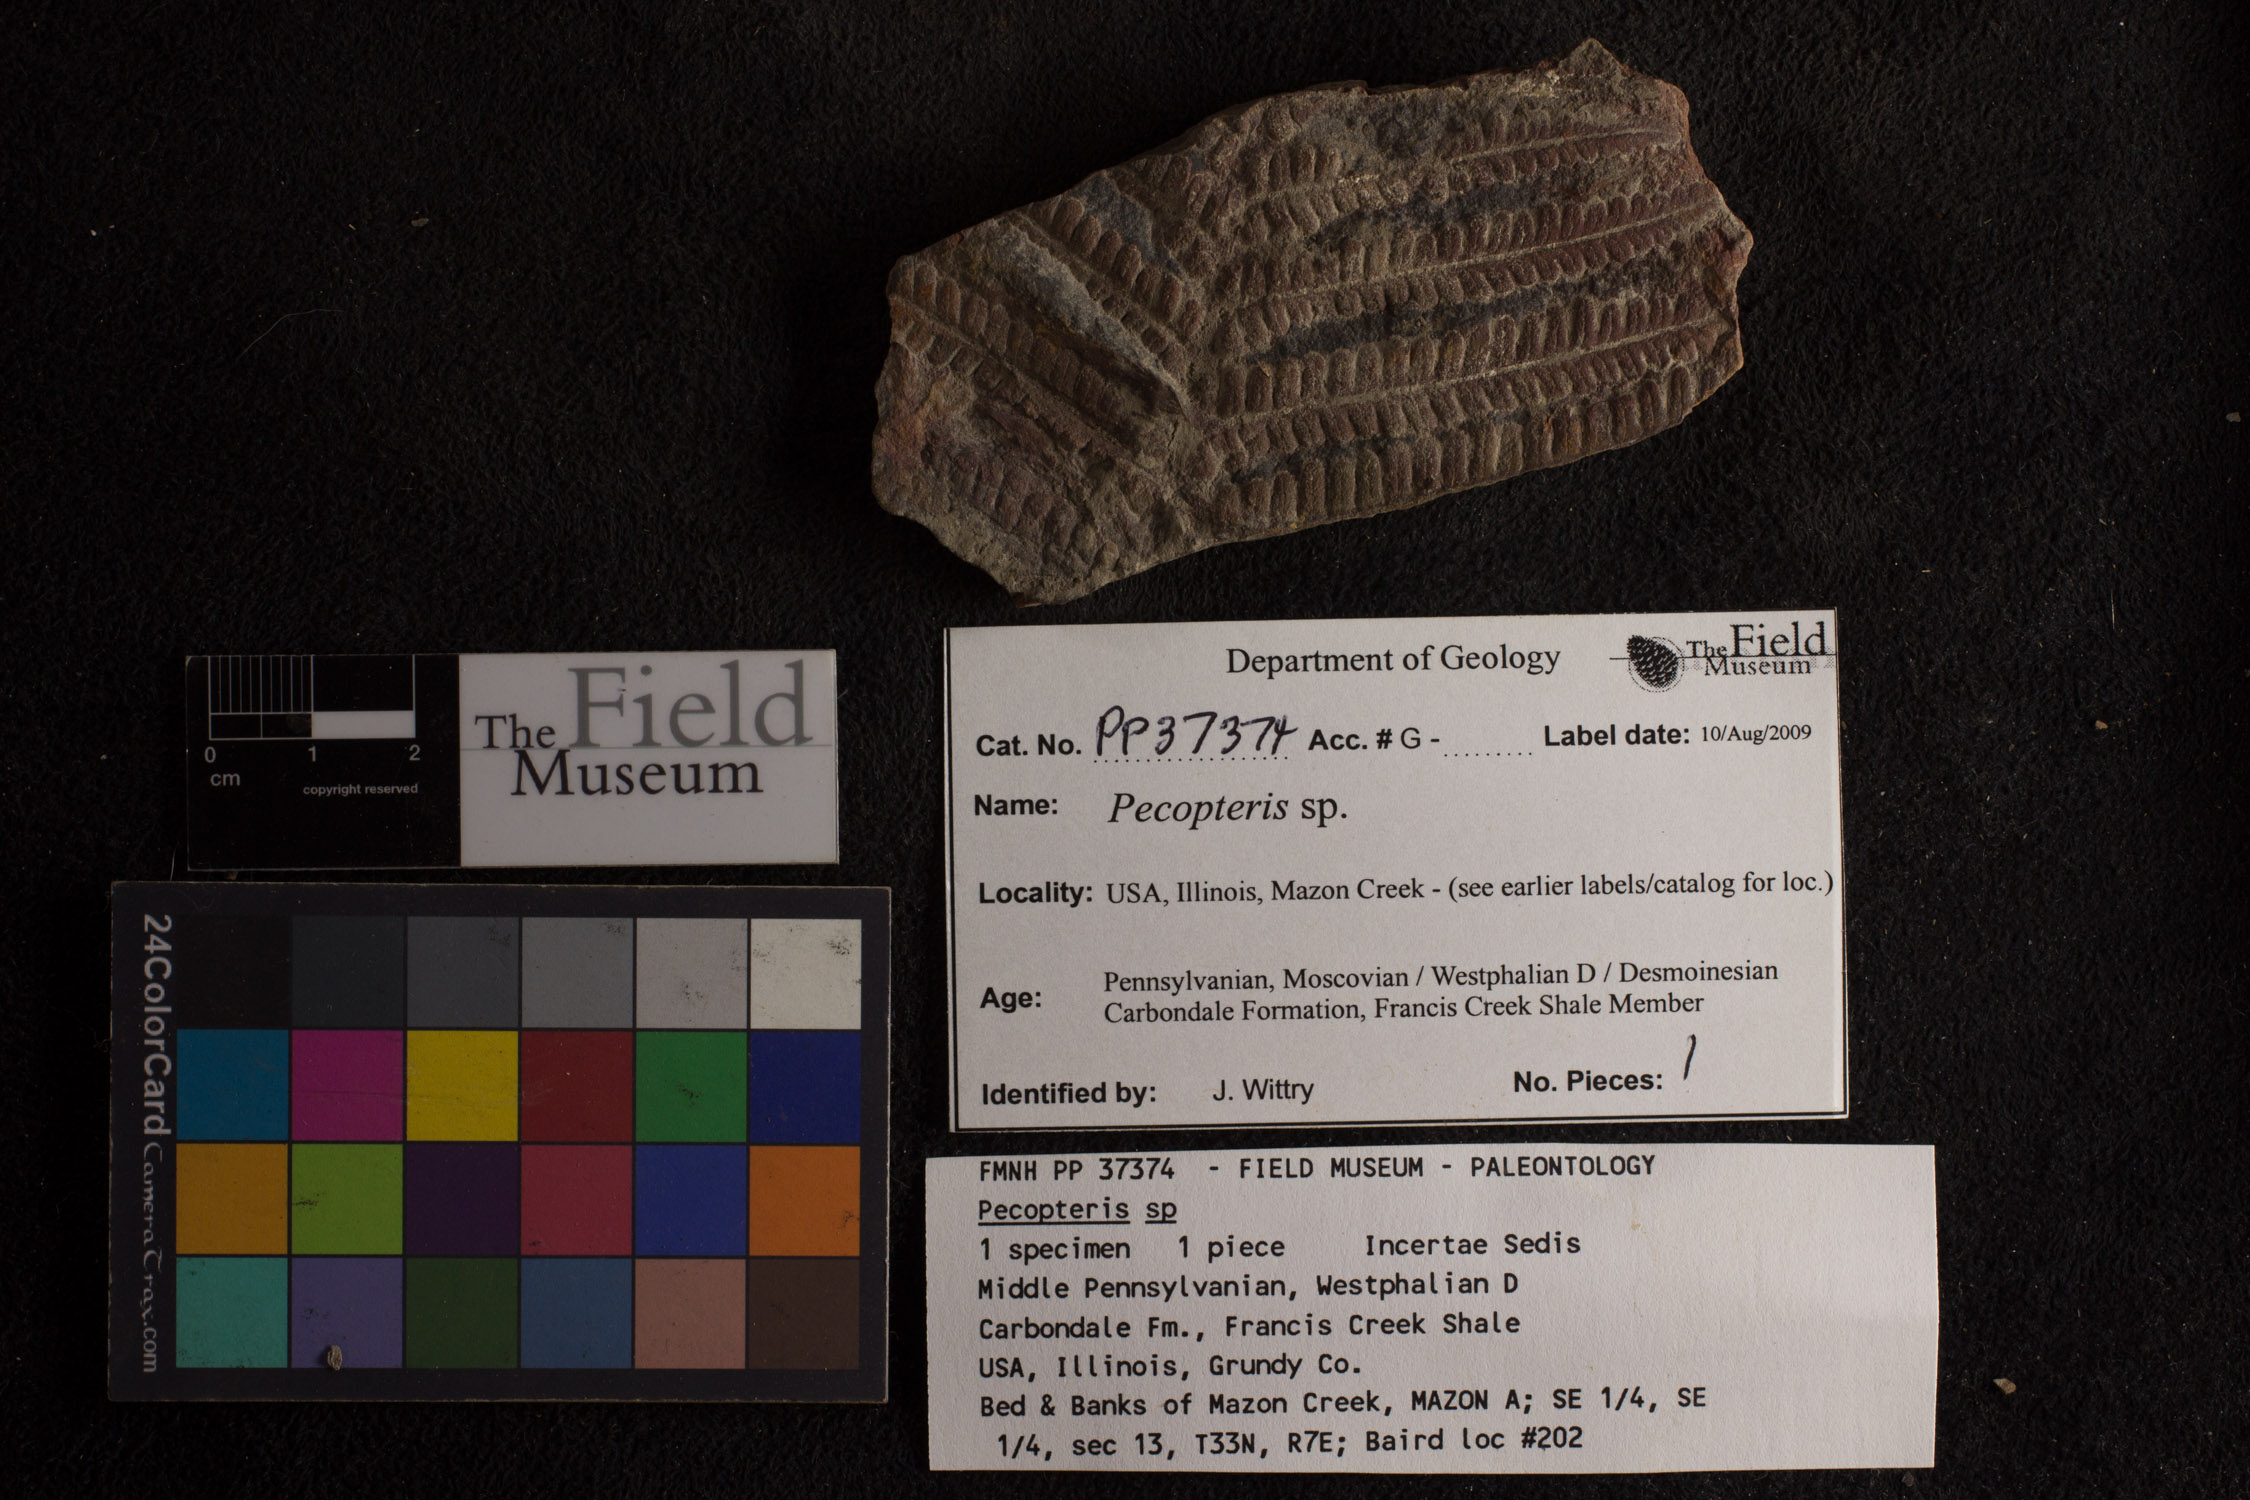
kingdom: Plantae
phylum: Tracheophyta
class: Polypodiopsida
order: Marattiales
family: Asterothecaceae
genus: Pecopteris
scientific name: Pecopteris
